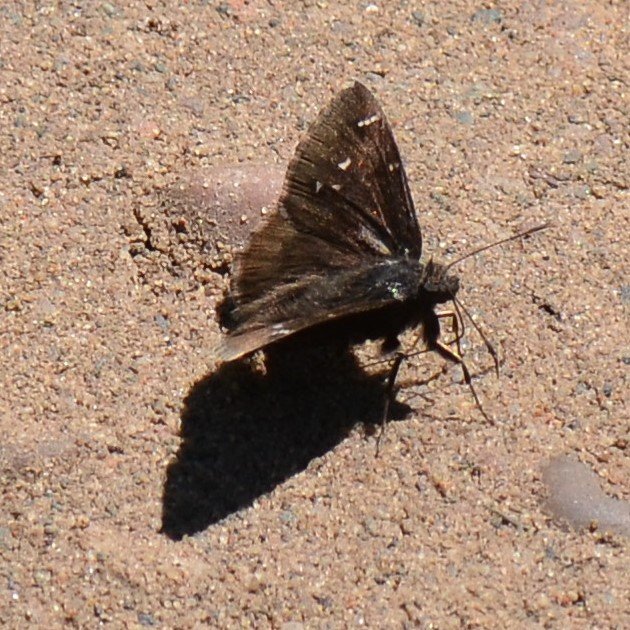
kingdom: Animalia
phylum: Arthropoda
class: Insecta
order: Lepidoptera
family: Hesperiidae
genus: Autochton
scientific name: Autochton
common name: Northern Cloudywing
